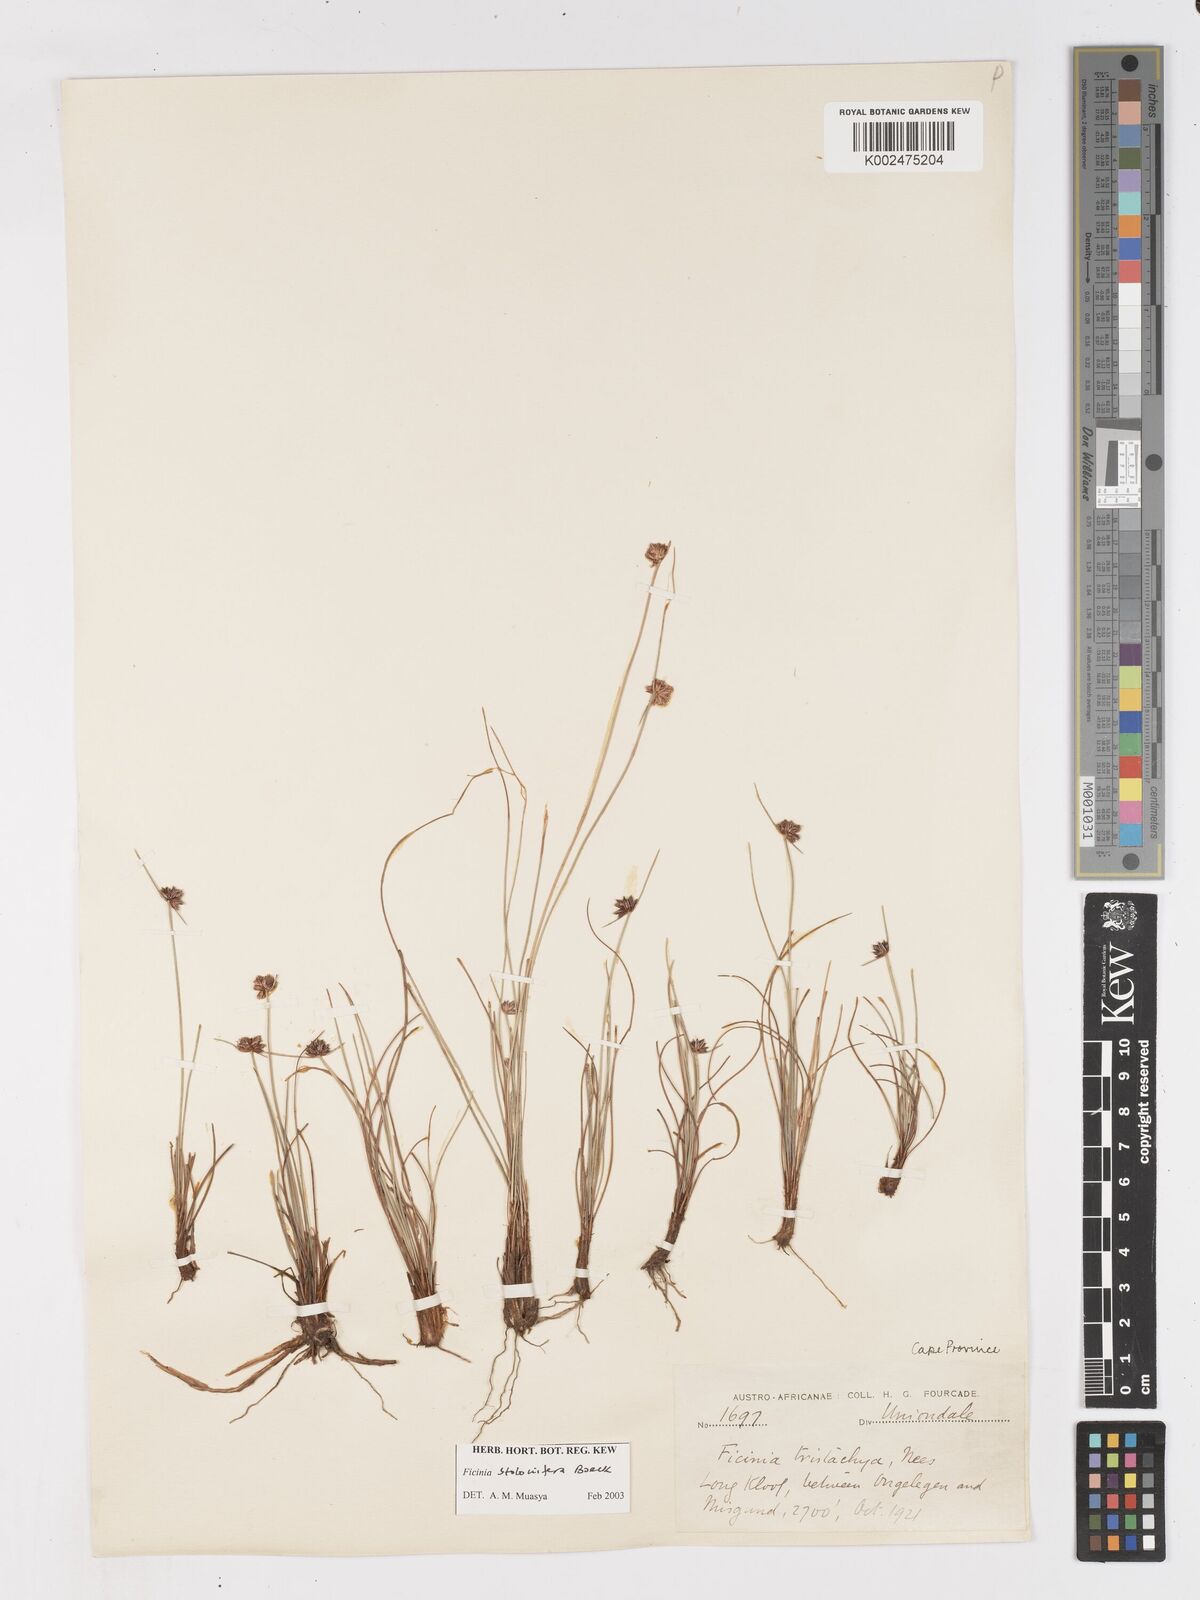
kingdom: Plantae
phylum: Tracheophyta
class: Liliopsida
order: Poales
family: Cyperaceae
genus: Ficinia
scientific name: Ficinia stolonifera
